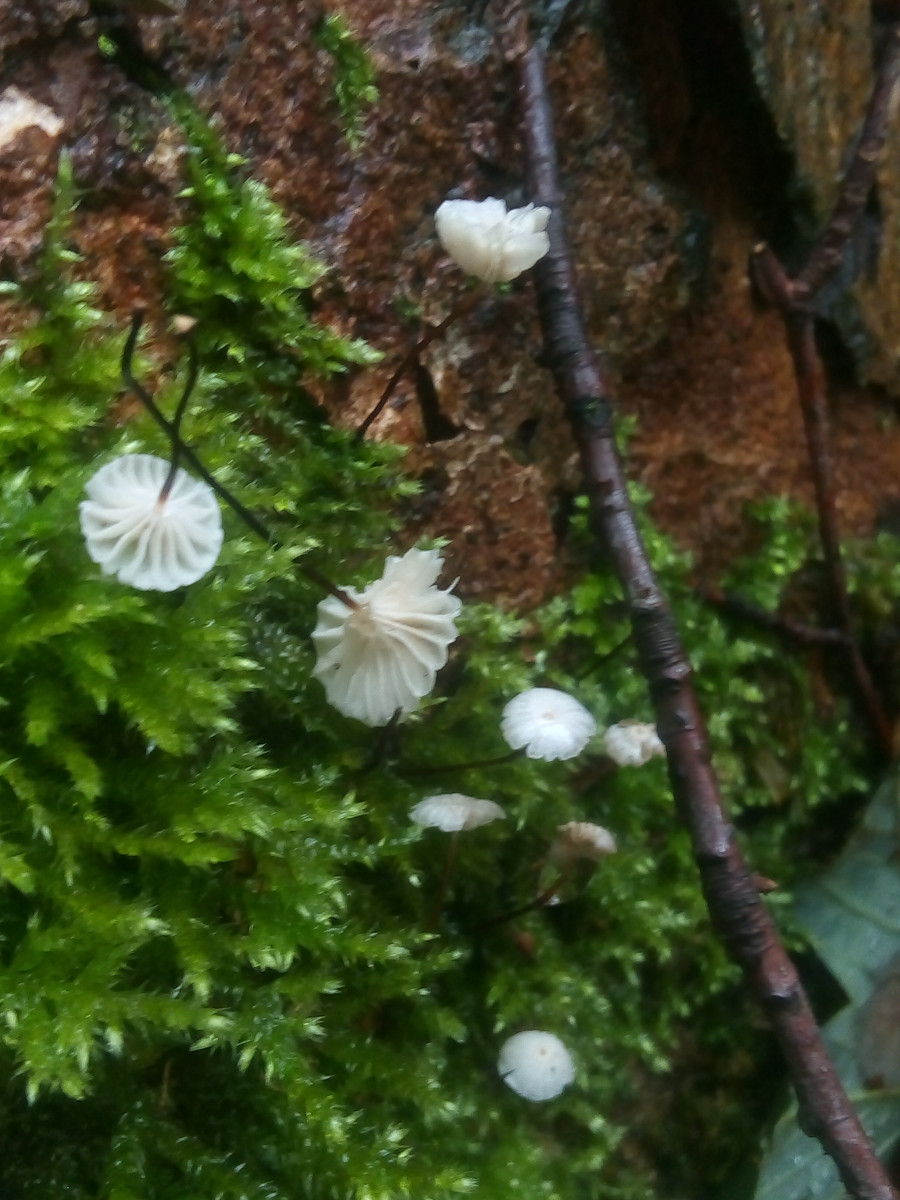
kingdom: Fungi
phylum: Basidiomycota
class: Agaricomycetes
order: Agaricales
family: Marasmiaceae
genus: Marasmius
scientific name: Marasmius rotula
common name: hjul-bruskhat
